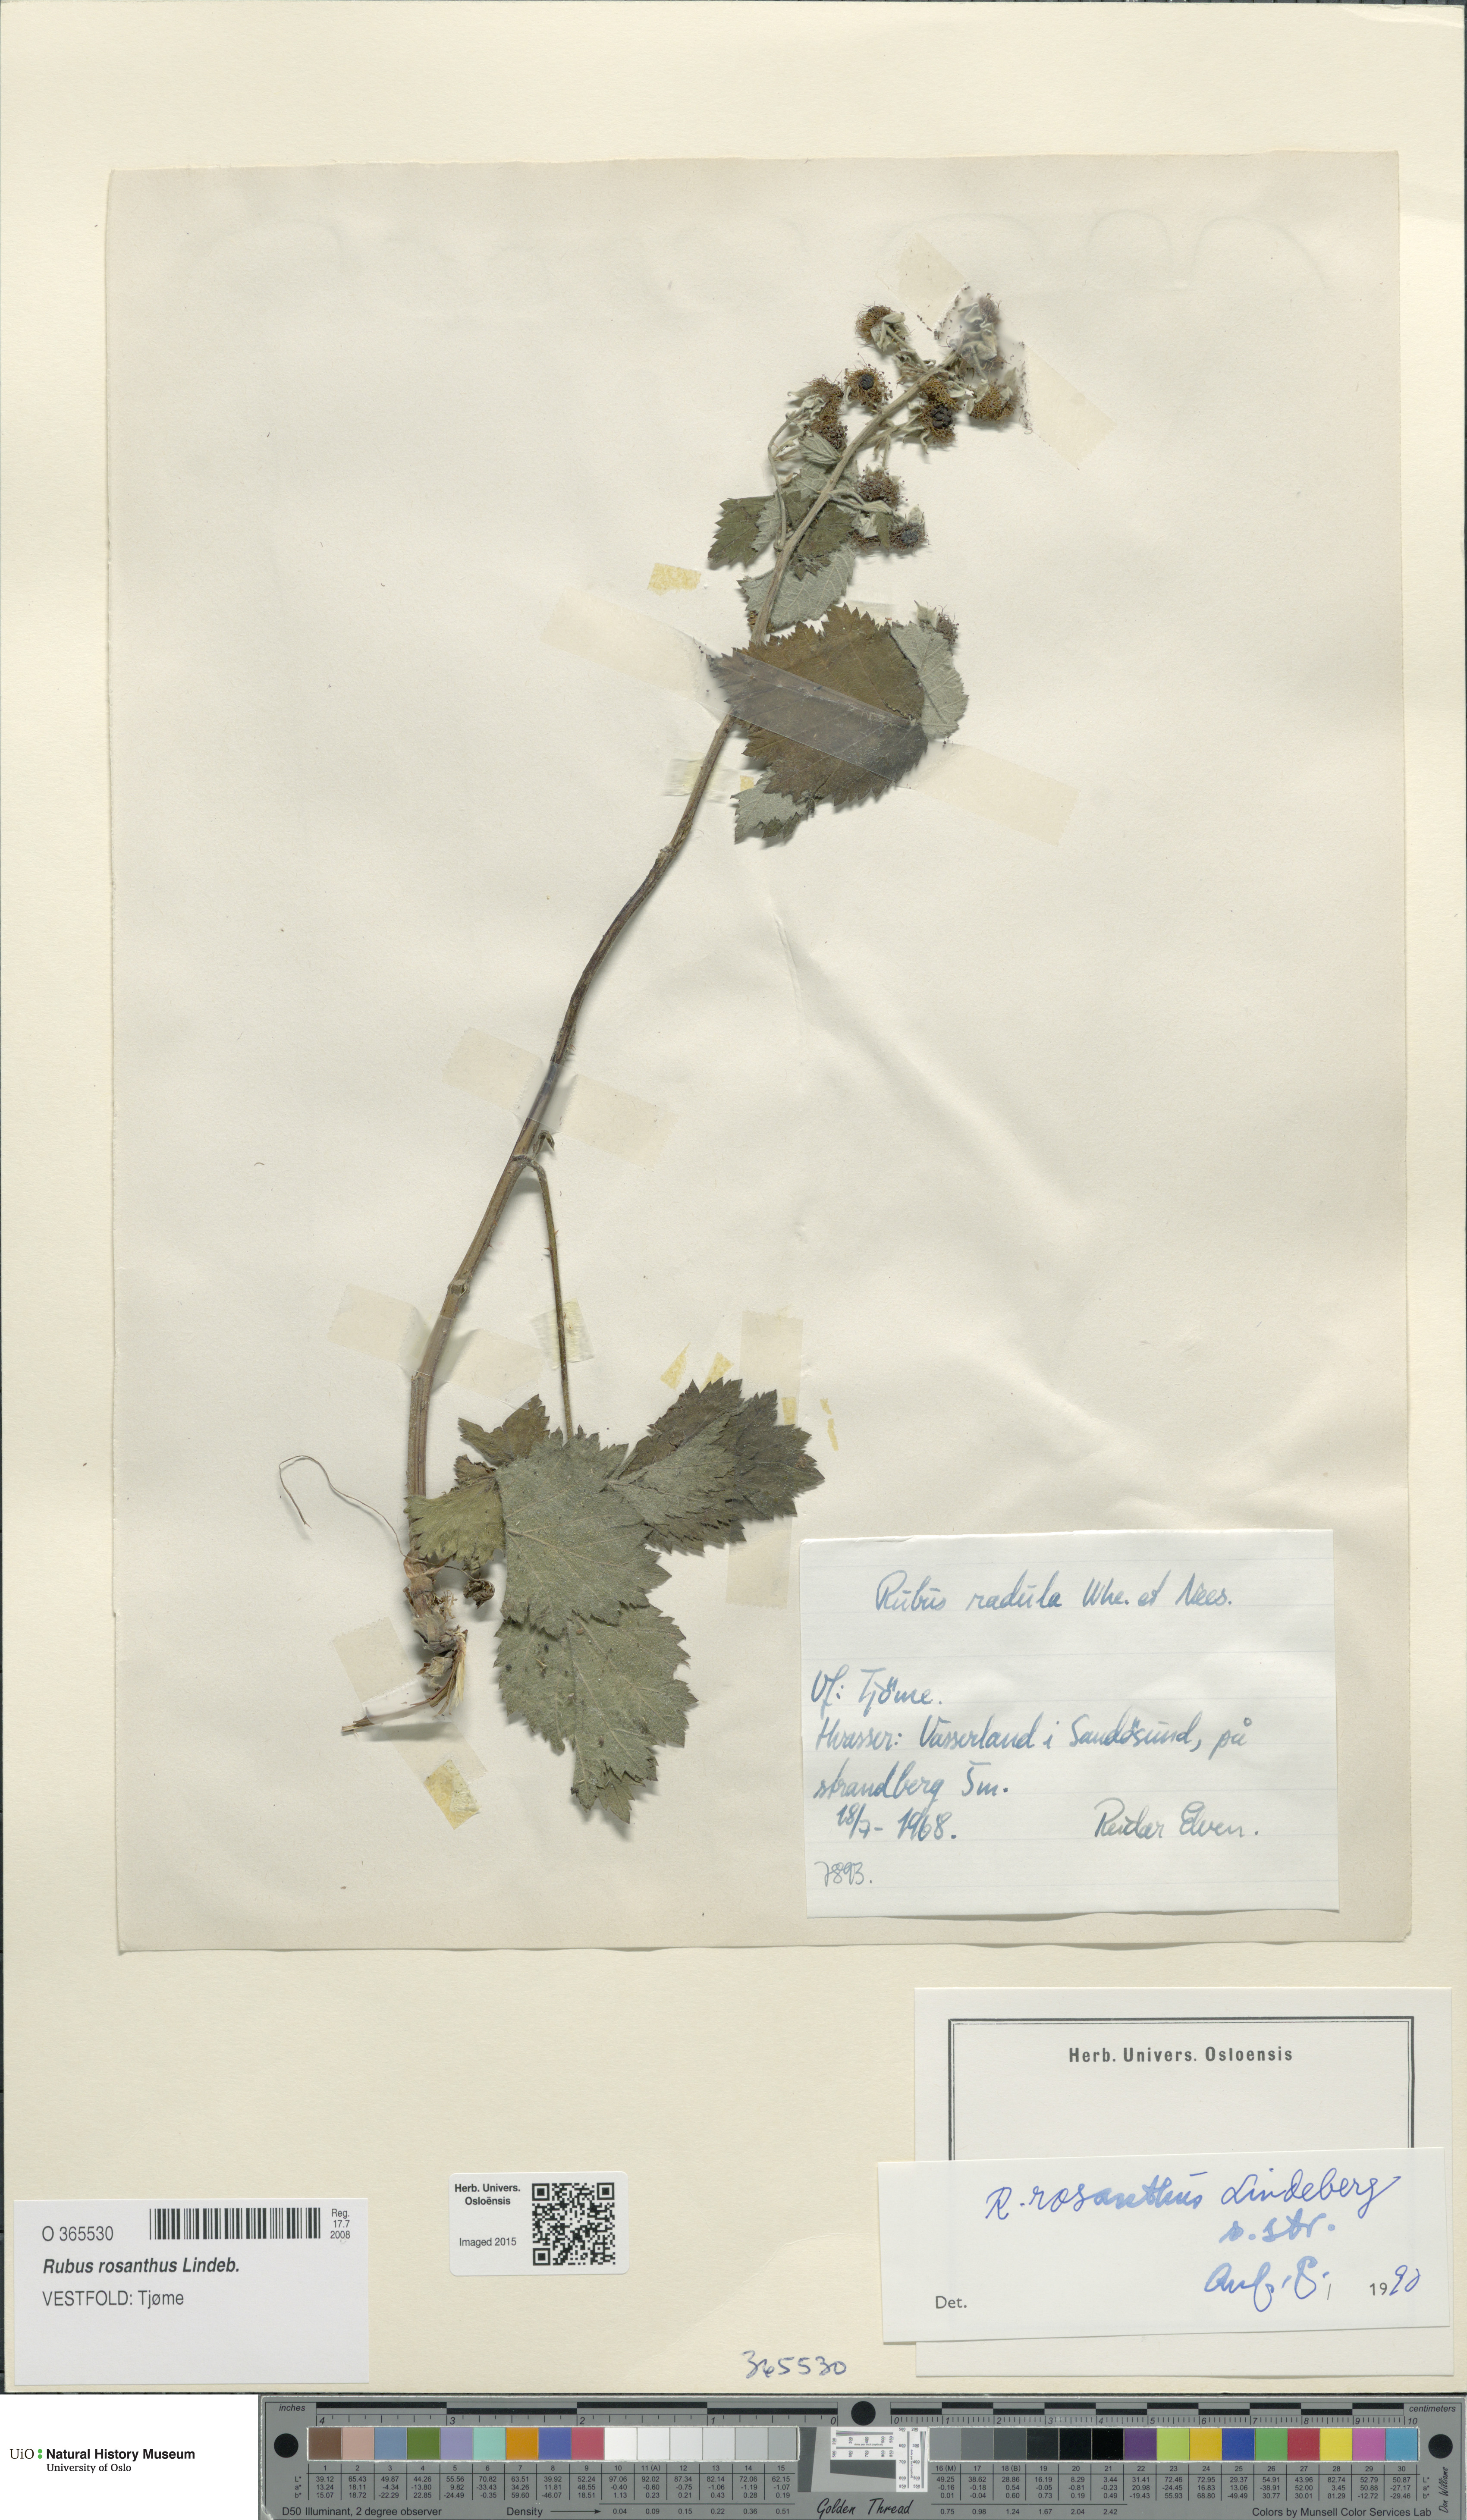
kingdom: Plantae
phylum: Tracheophyta
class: Magnoliopsida
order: Rosales
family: Rosaceae
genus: Rubus
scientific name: Rubus rosanthus
